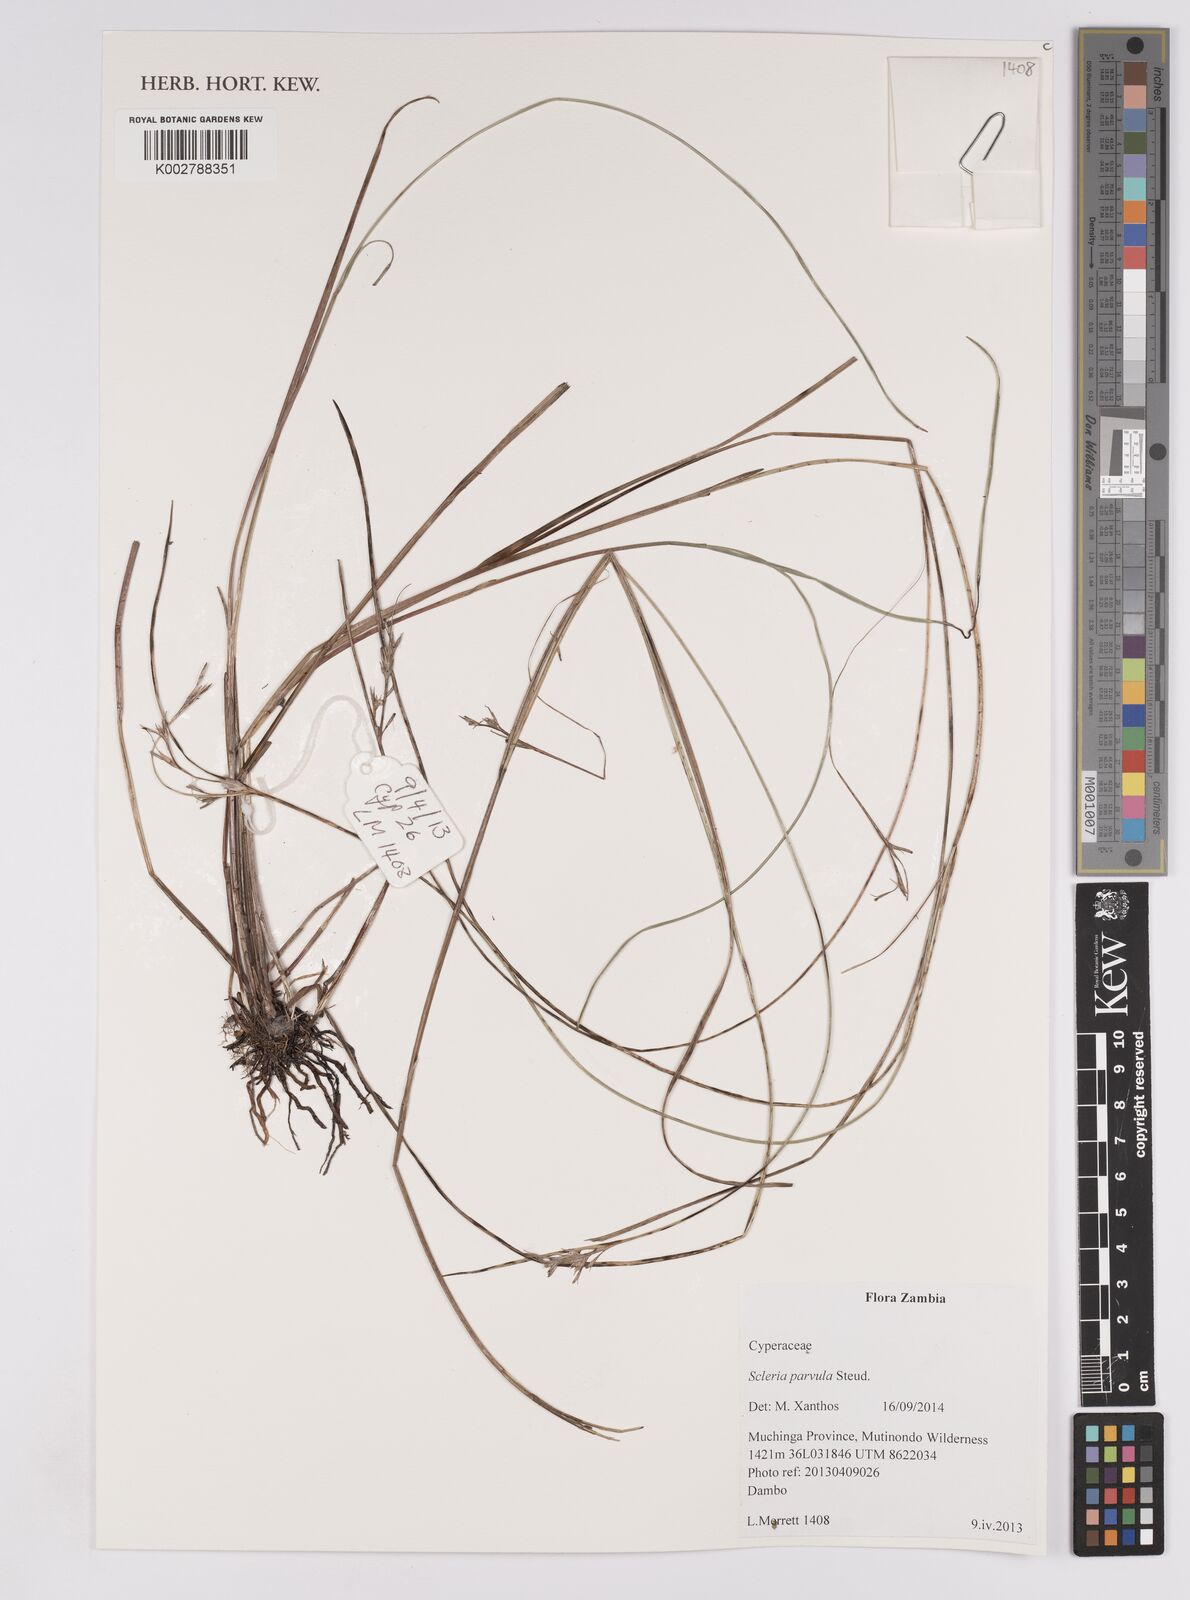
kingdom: Plantae
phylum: Tracheophyta
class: Liliopsida
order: Poales
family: Cyperaceae
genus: Scleria
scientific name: Scleria parvula
